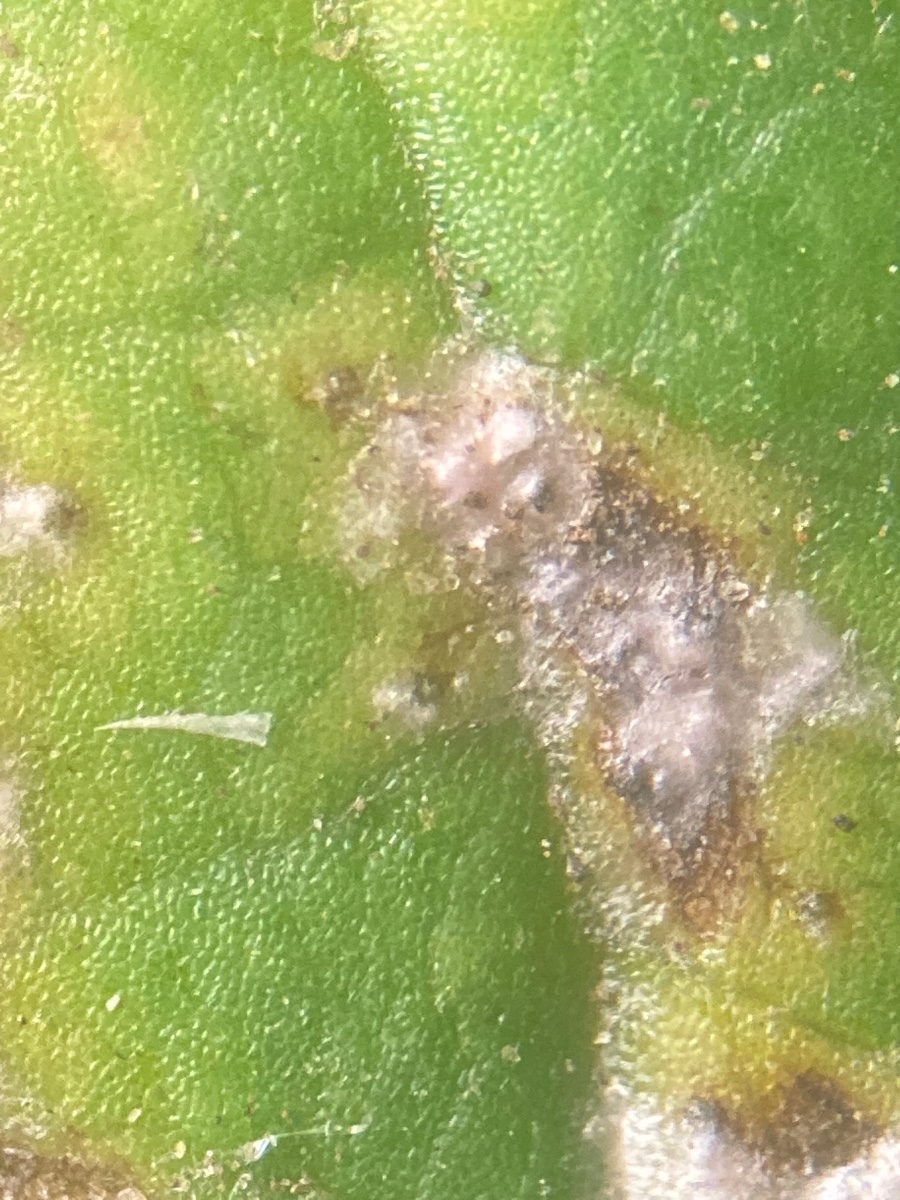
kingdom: Fungi
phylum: Ascomycota
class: Dothideomycetes
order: Mycosphaerellales
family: Mycosphaerellaceae
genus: Mycosphaerella
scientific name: Mycosphaerella podagrariae
